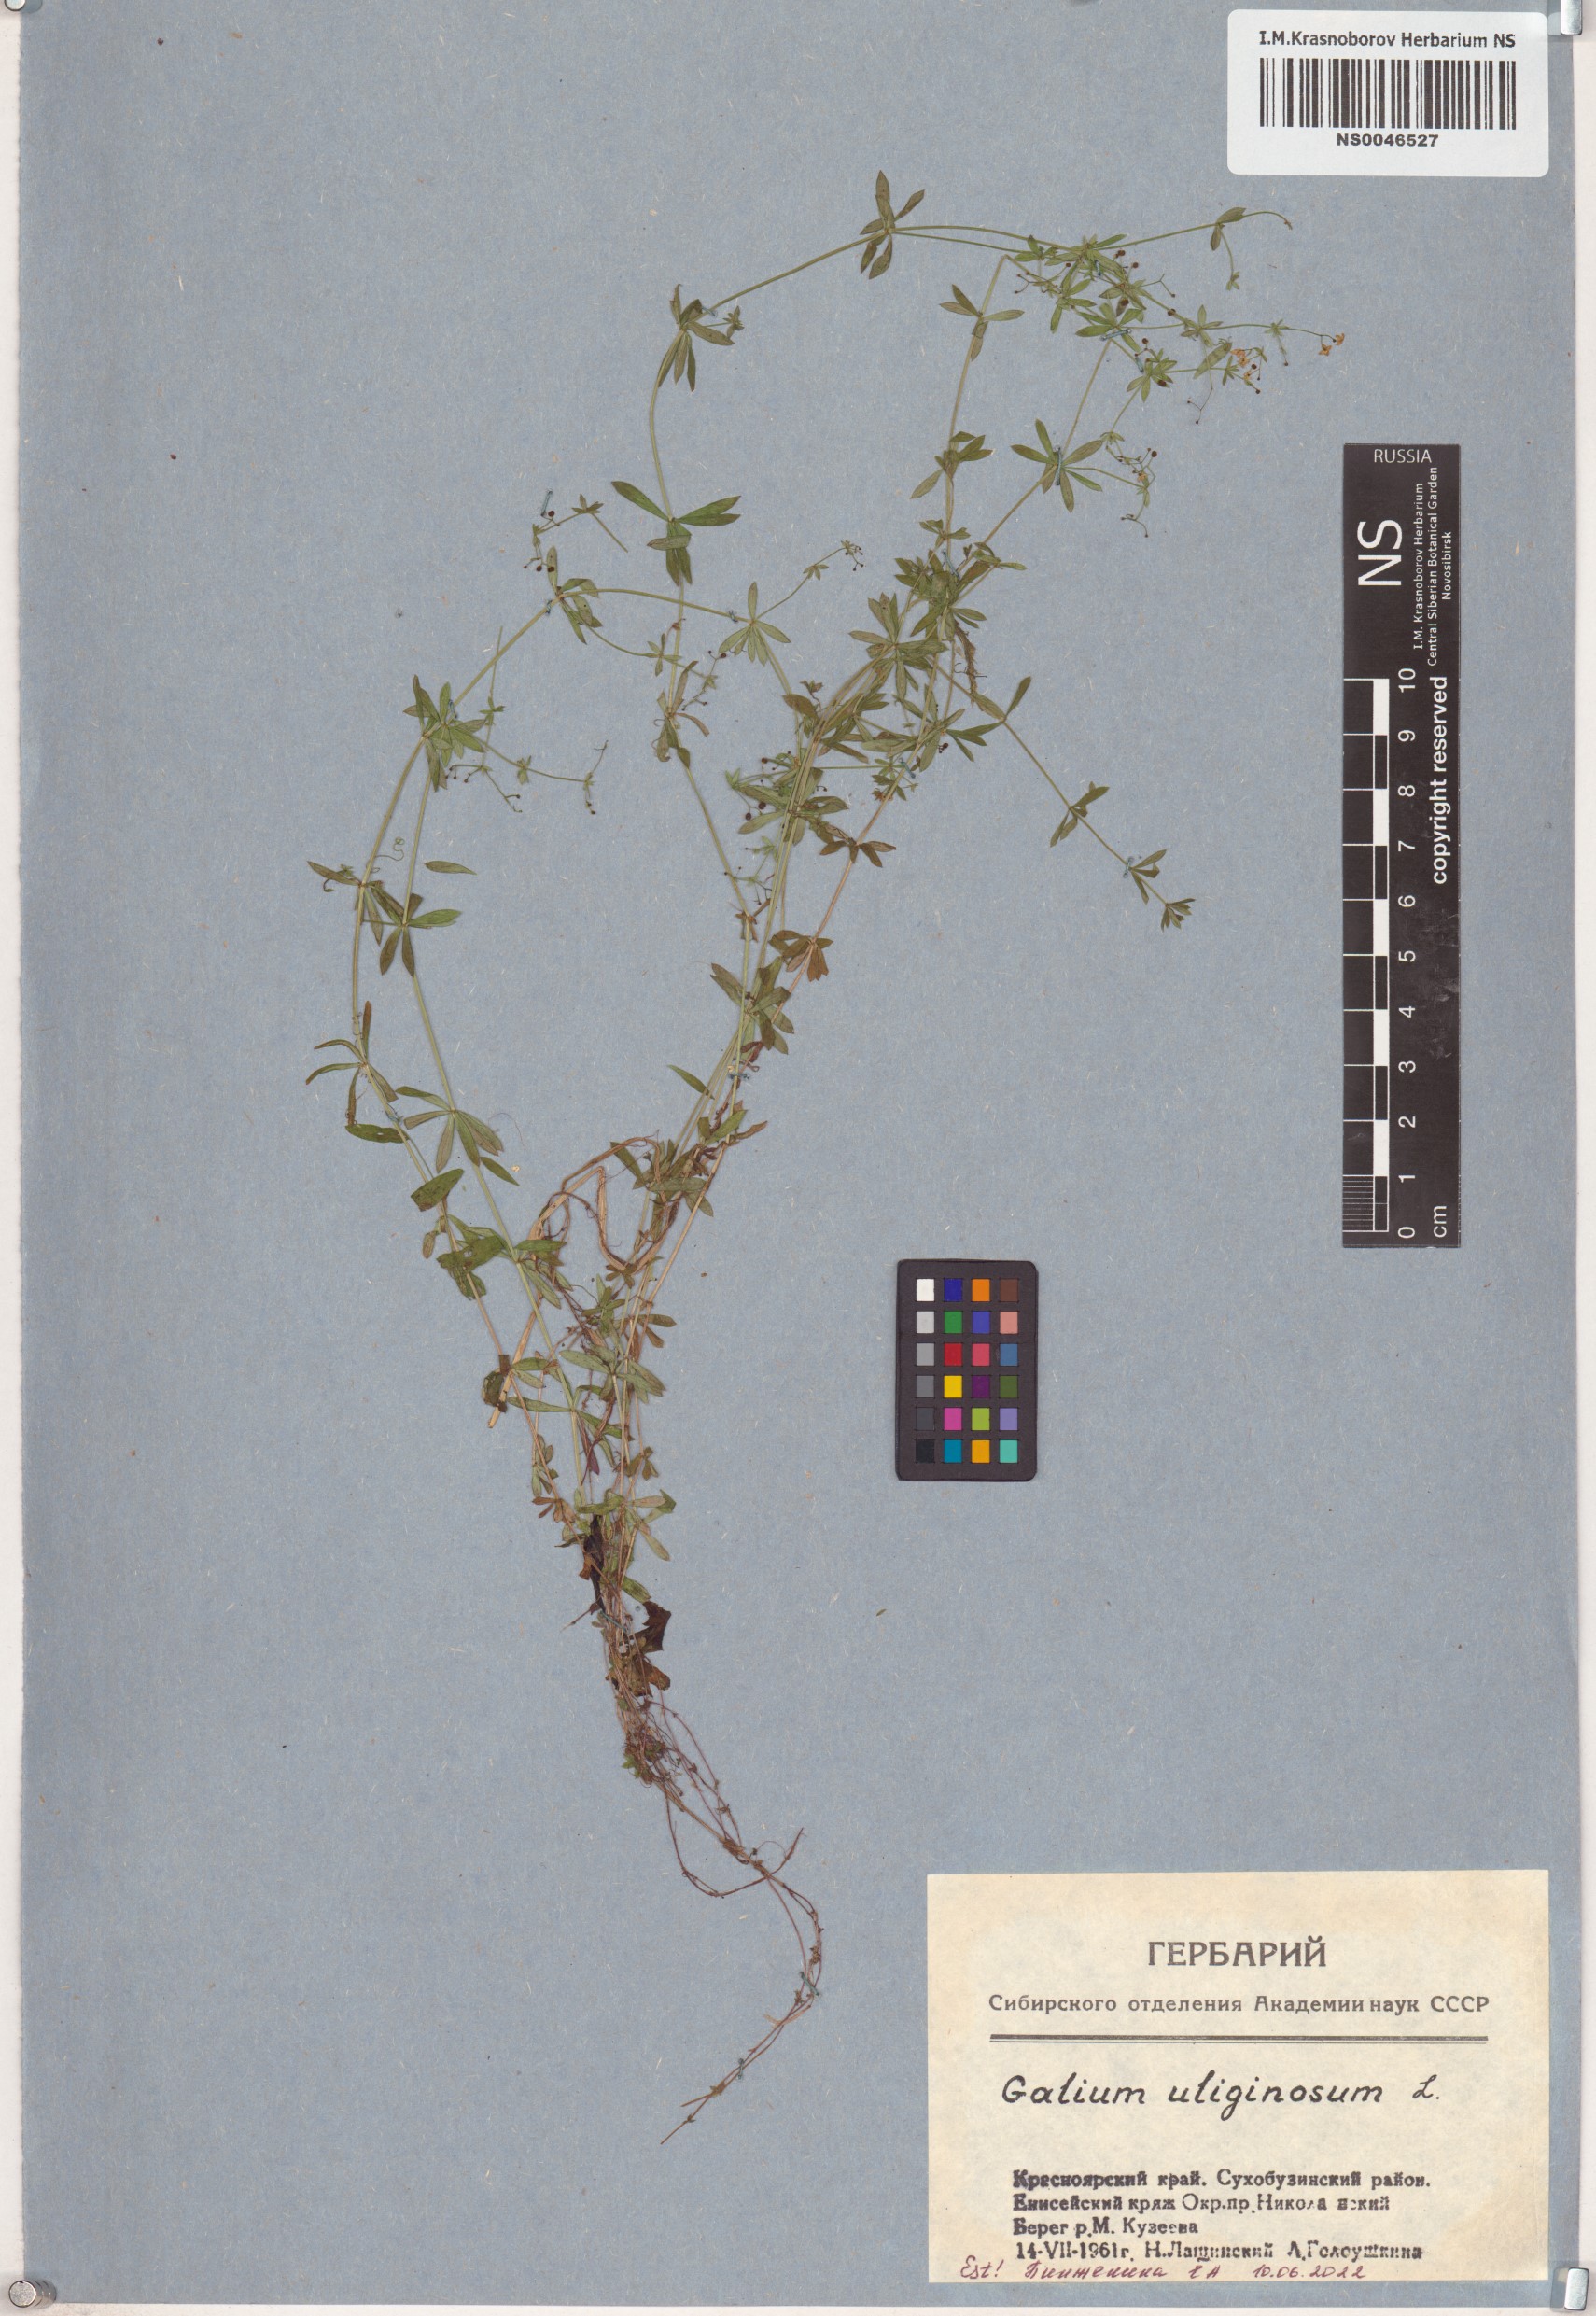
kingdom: Plantae
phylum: Tracheophyta
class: Magnoliopsida
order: Gentianales
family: Rubiaceae
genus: Galium
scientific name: Galium uliginosum
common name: Fen bedstraw
